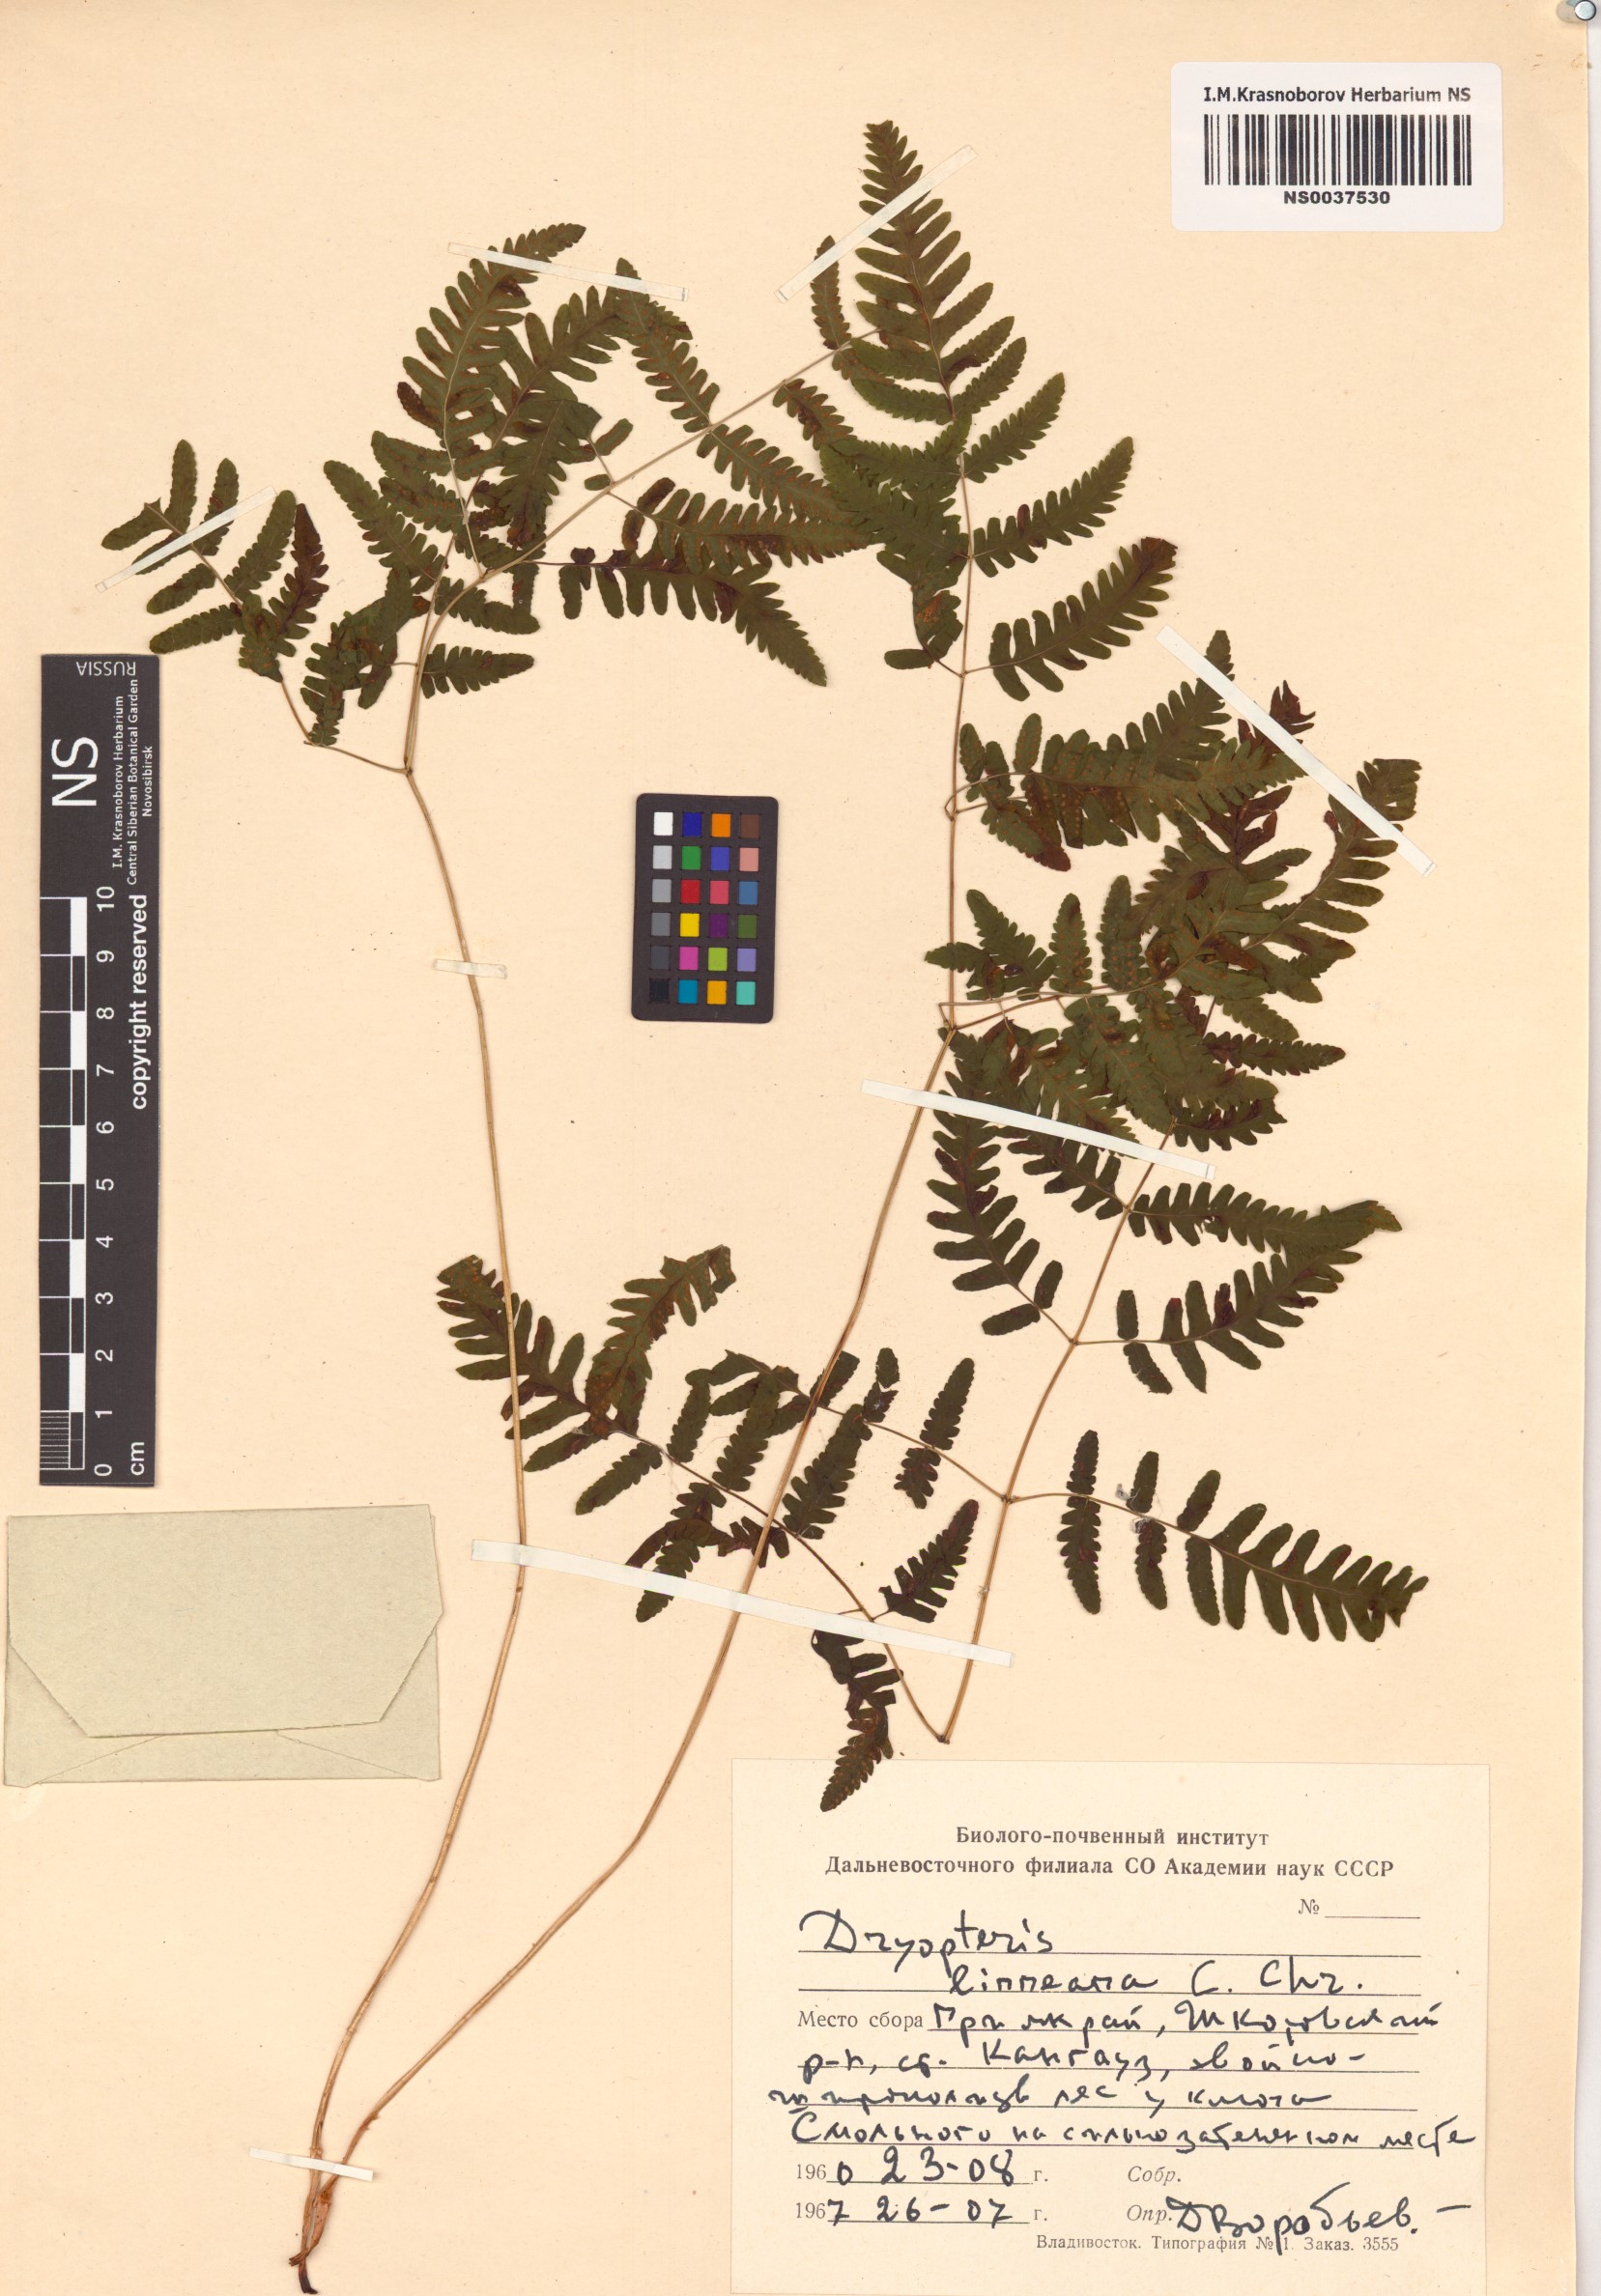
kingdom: Plantae
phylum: Tracheophyta
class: Polypodiopsida
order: Polypodiales
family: Cystopteridaceae
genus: Gymnocarpium
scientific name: Gymnocarpium dryopteris
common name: Oak fern
